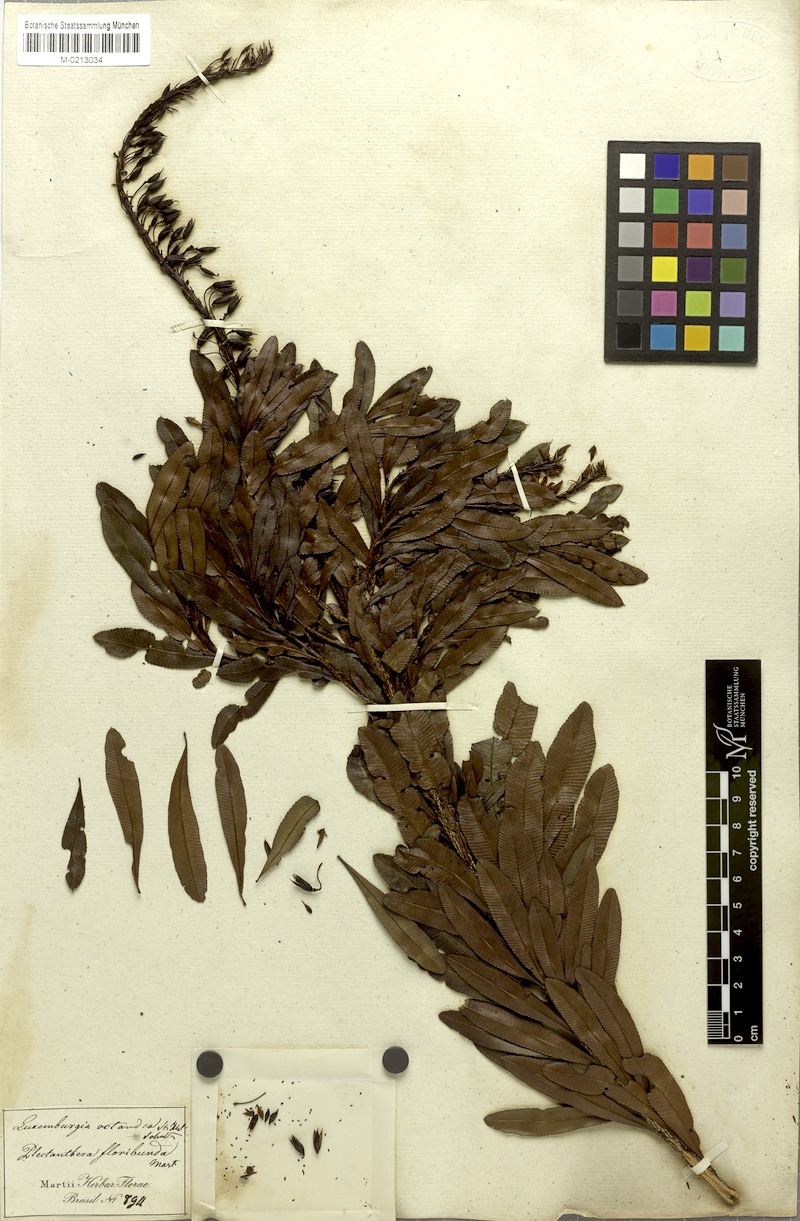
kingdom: Plantae
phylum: Tracheophyta
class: Magnoliopsida
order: Malpighiales
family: Ochnaceae
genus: Luxemburgia
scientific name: Luxemburgia octandra
